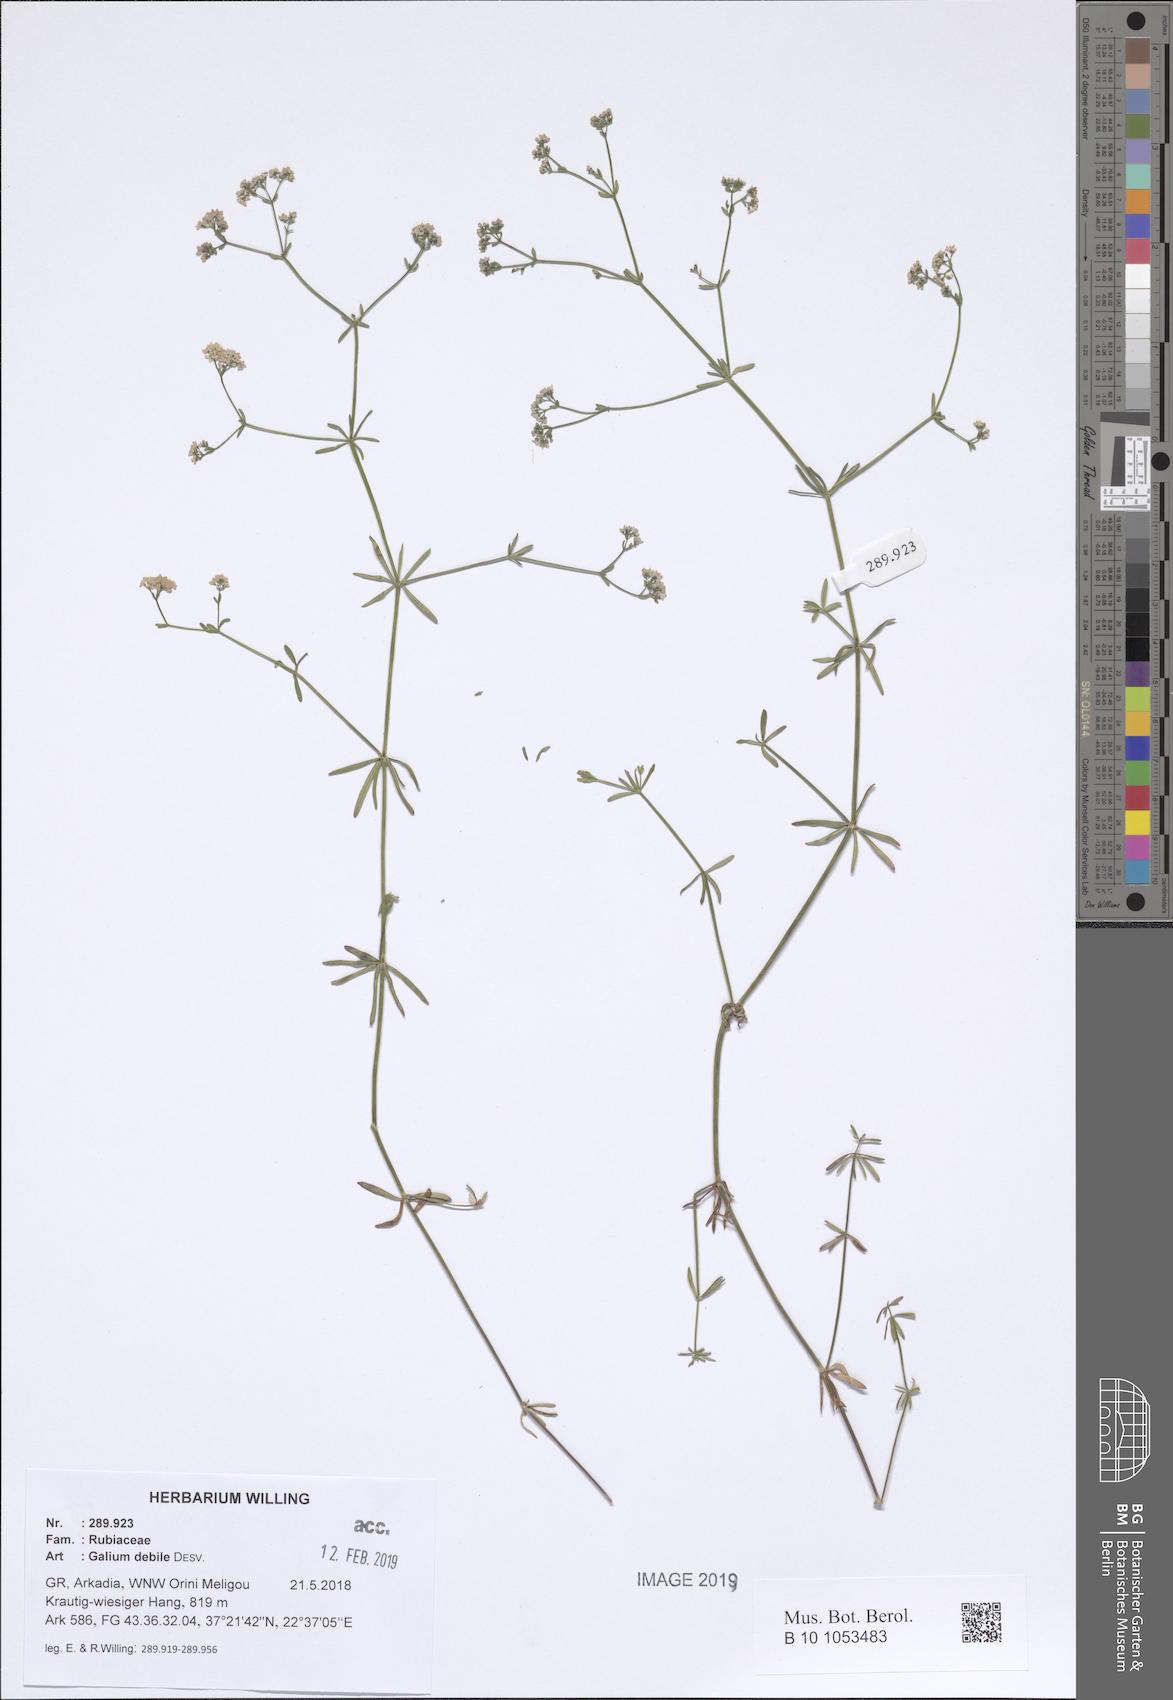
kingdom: Plantae
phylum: Tracheophyta
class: Magnoliopsida
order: Gentianales
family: Rubiaceae
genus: Galium
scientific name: Galium debile
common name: Slender marsh-bedstraw
